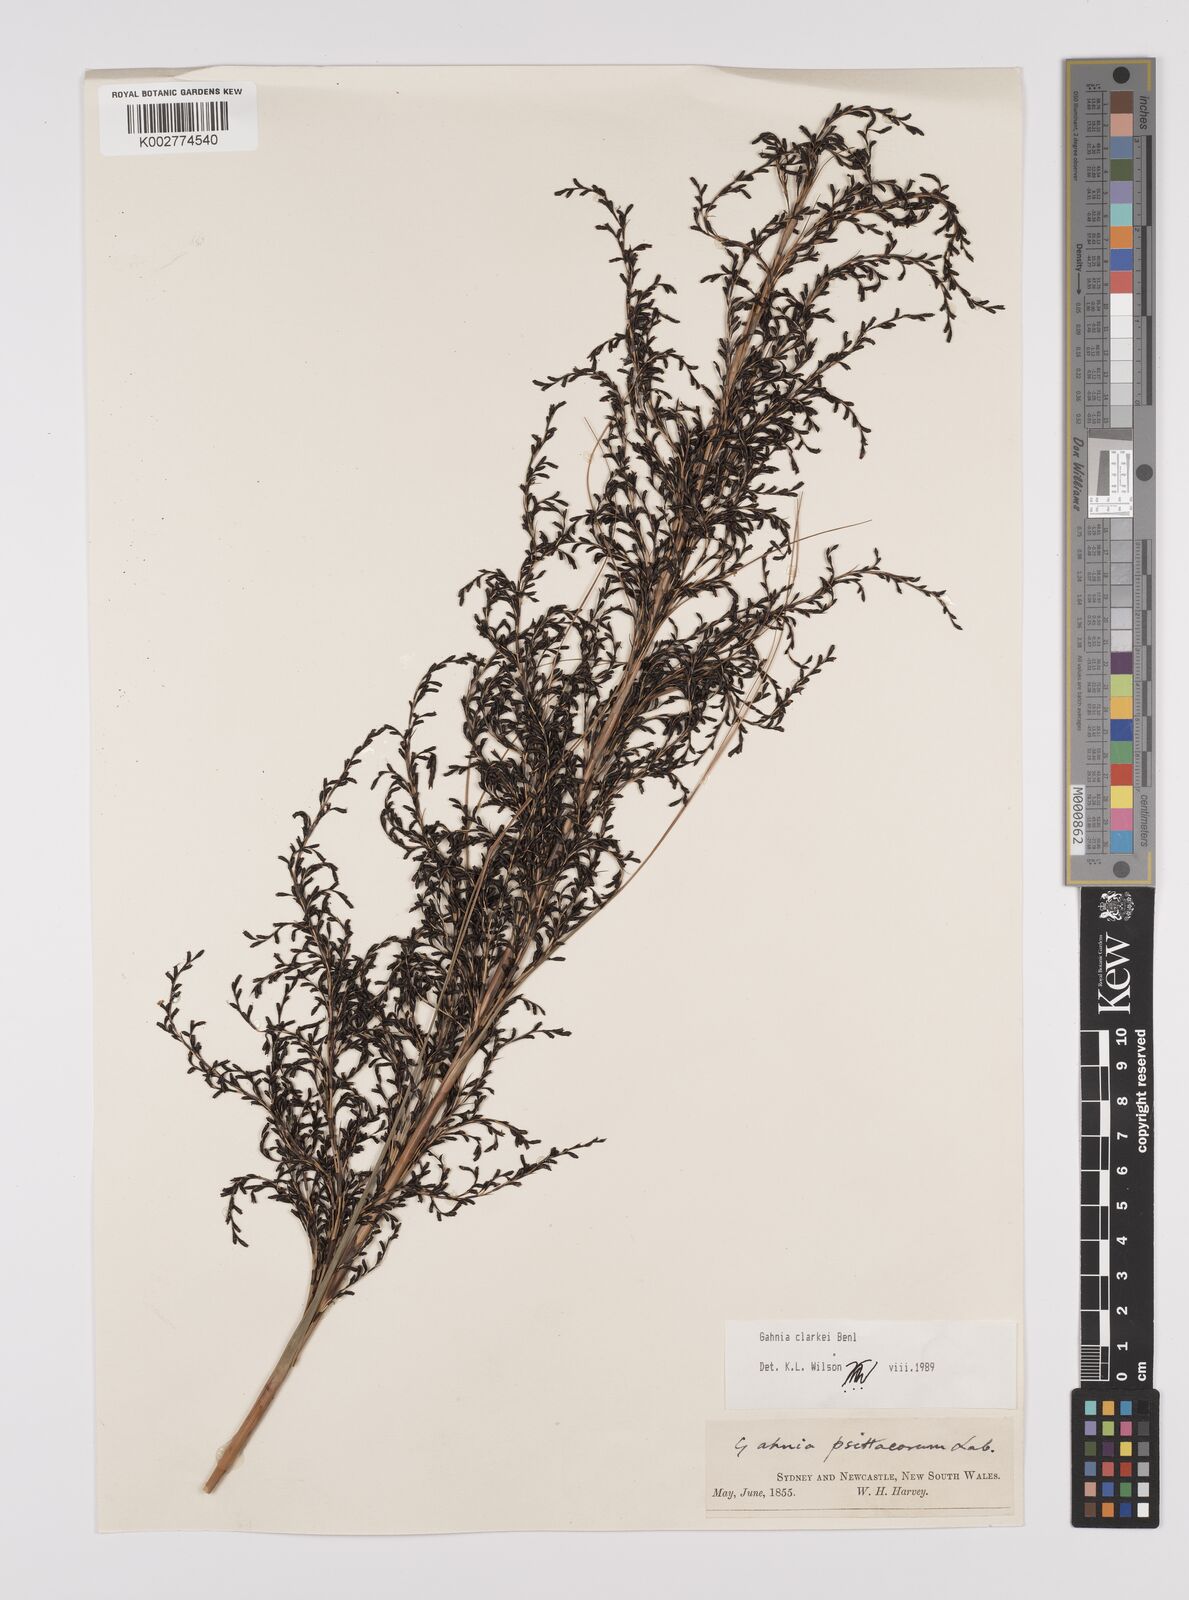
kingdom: Plantae
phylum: Tracheophyta
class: Liliopsida
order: Poales
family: Cyperaceae
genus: Gahnia
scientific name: Gahnia clarkei
